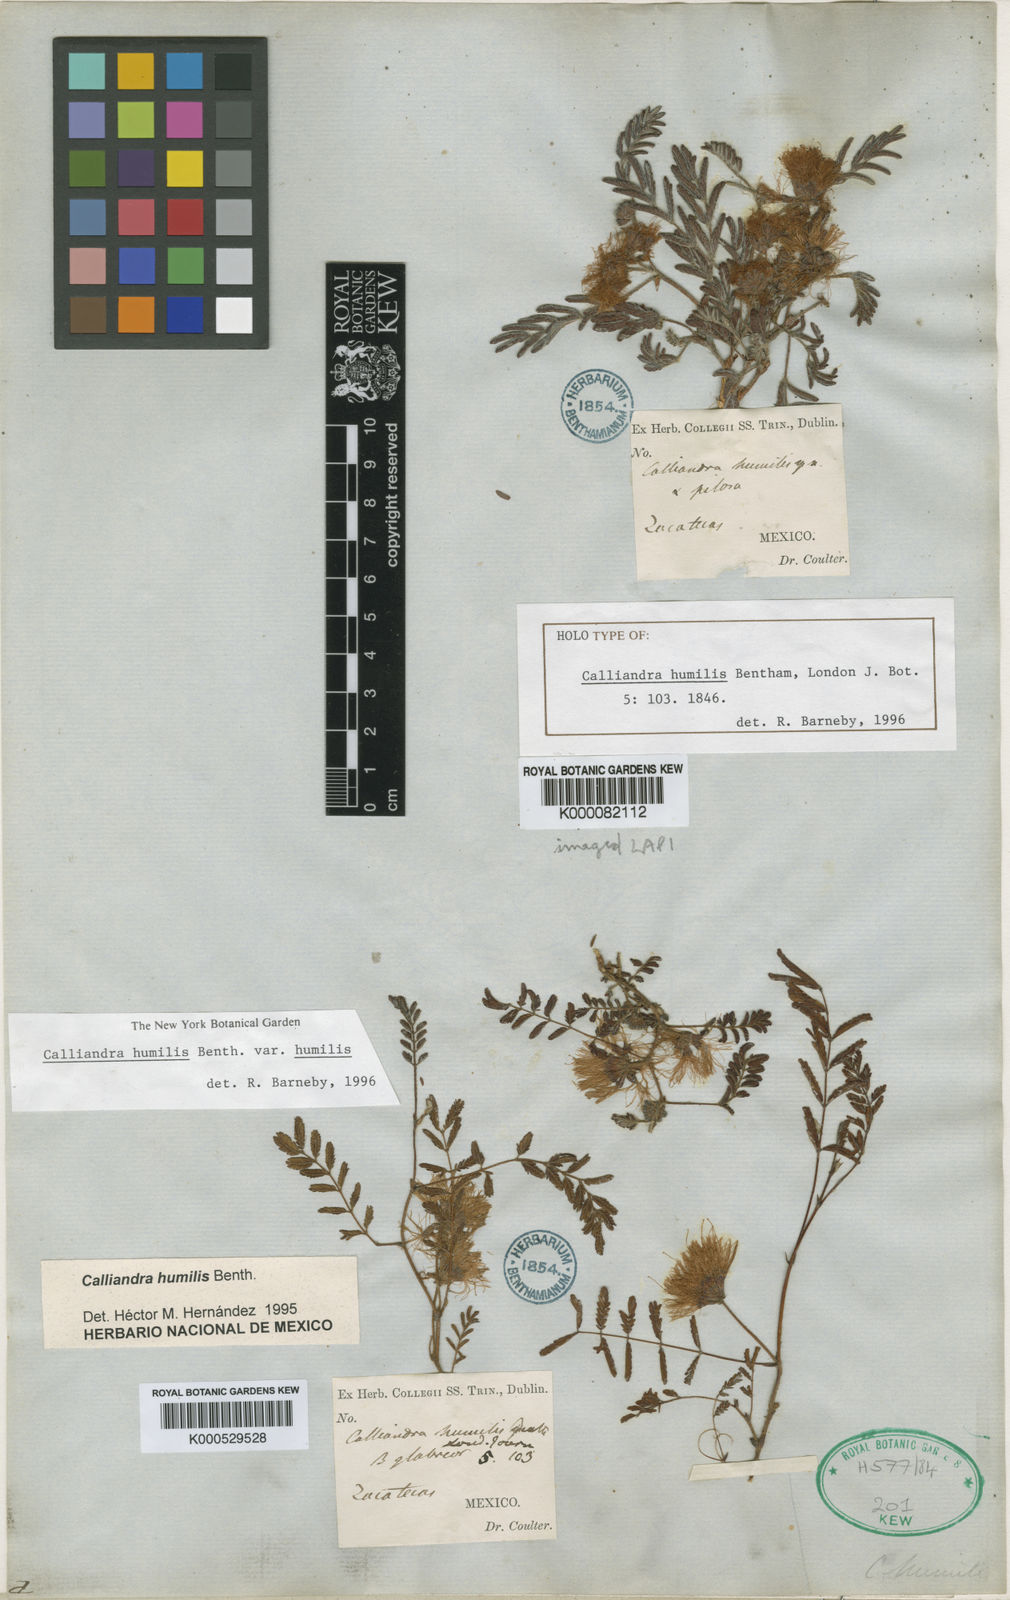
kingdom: Plantae
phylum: Tracheophyta
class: Magnoliopsida
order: Fabales
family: Fabaceae
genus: Calliandra
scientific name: Calliandra humilis
